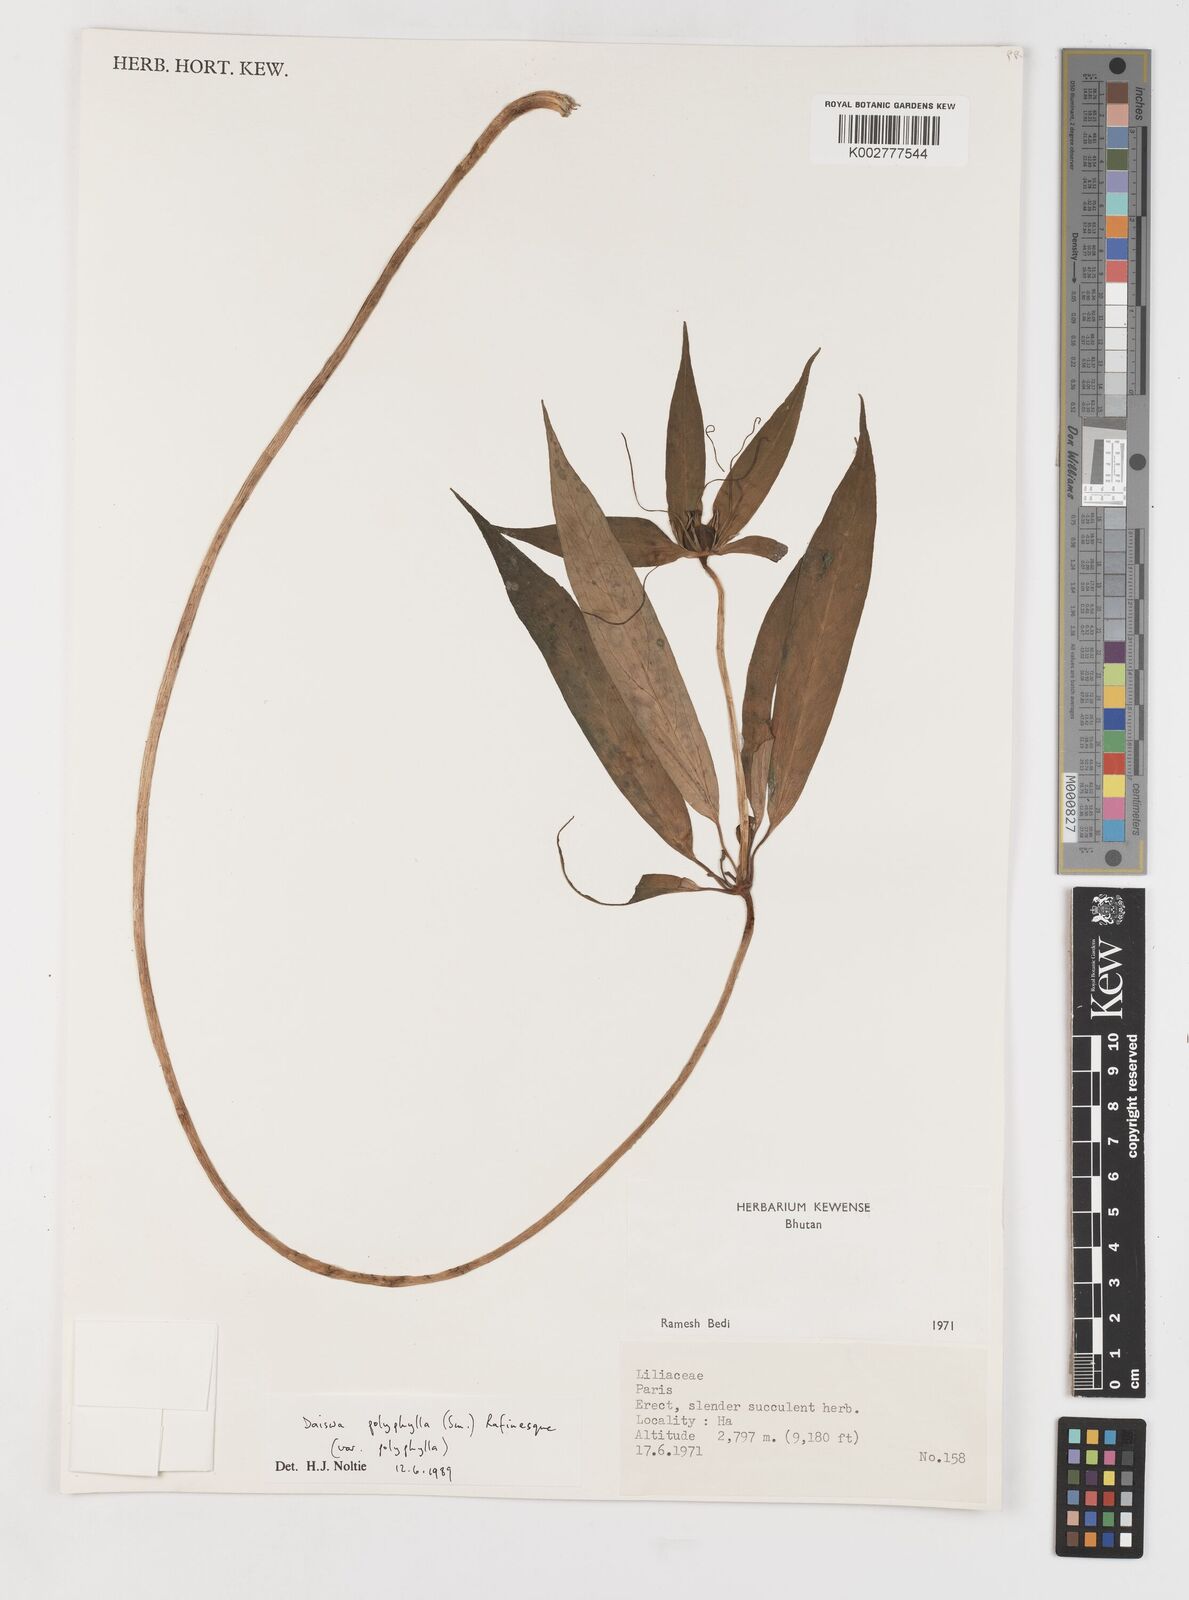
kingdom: Plantae
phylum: Tracheophyta
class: Liliopsida
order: Liliales
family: Melanthiaceae
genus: Paris
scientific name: Paris polyphylla
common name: Love apple
